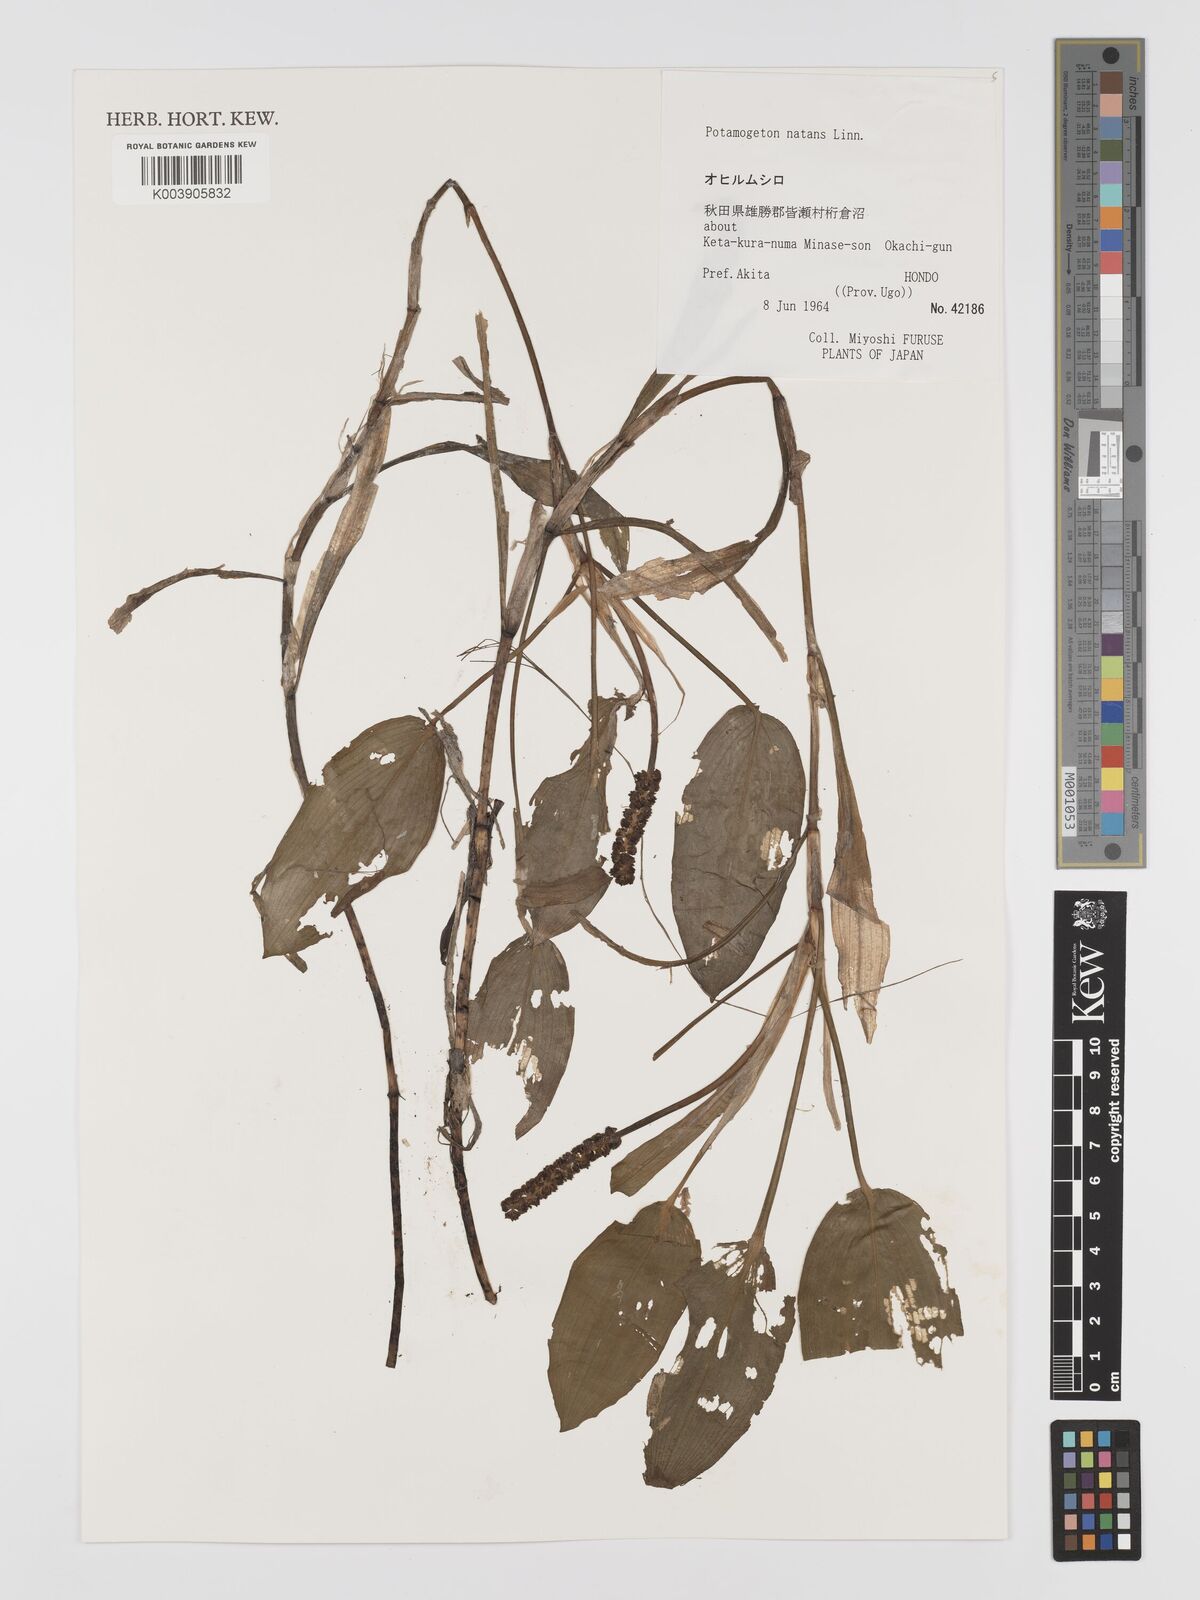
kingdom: Plantae
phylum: Tracheophyta
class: Liliopsida
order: Alismatales
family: Potamogetonaceae
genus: Potamogeton
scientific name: Potamogeton natans
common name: Broad-leaved pondweed
